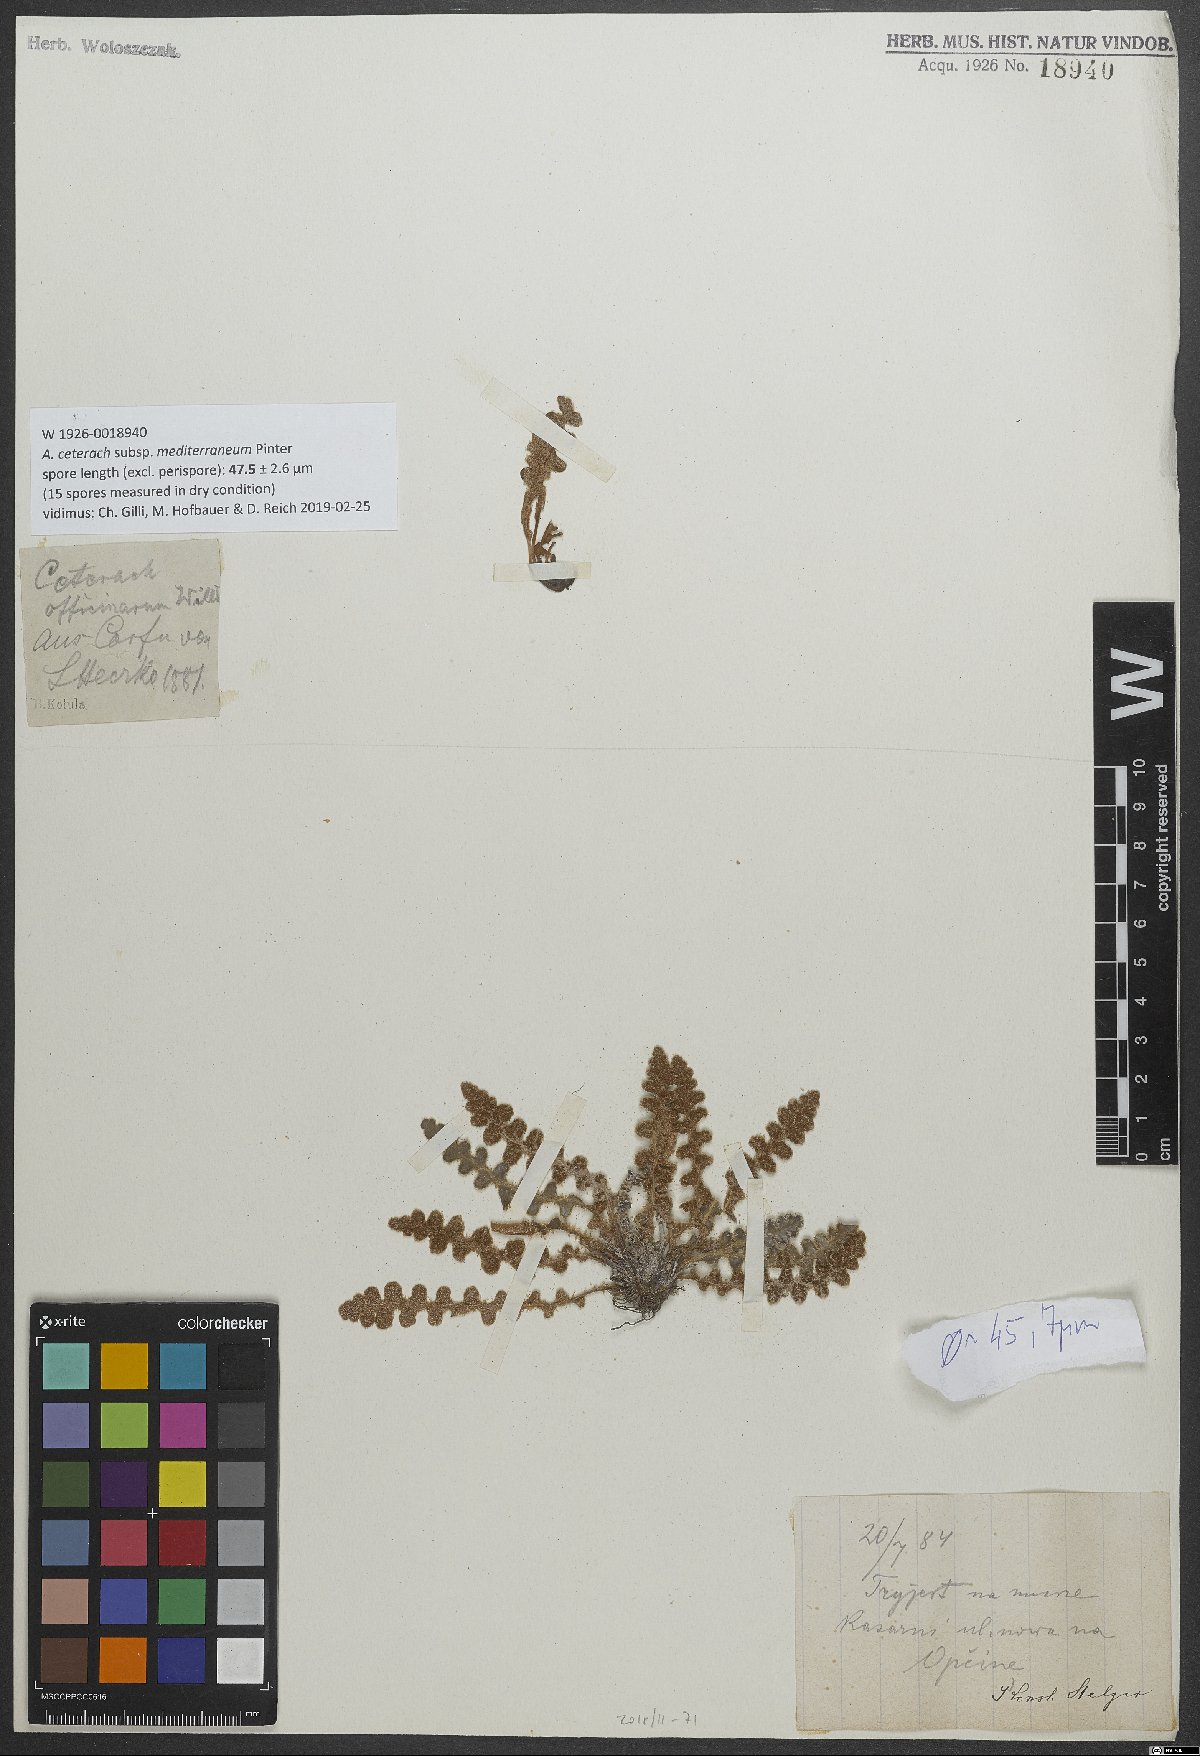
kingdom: Plantae
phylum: Tracheophyta
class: Polypodiopsida
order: Polypodiales
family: Aspleniaceae
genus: Asplenium
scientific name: Asplenium ceterach
